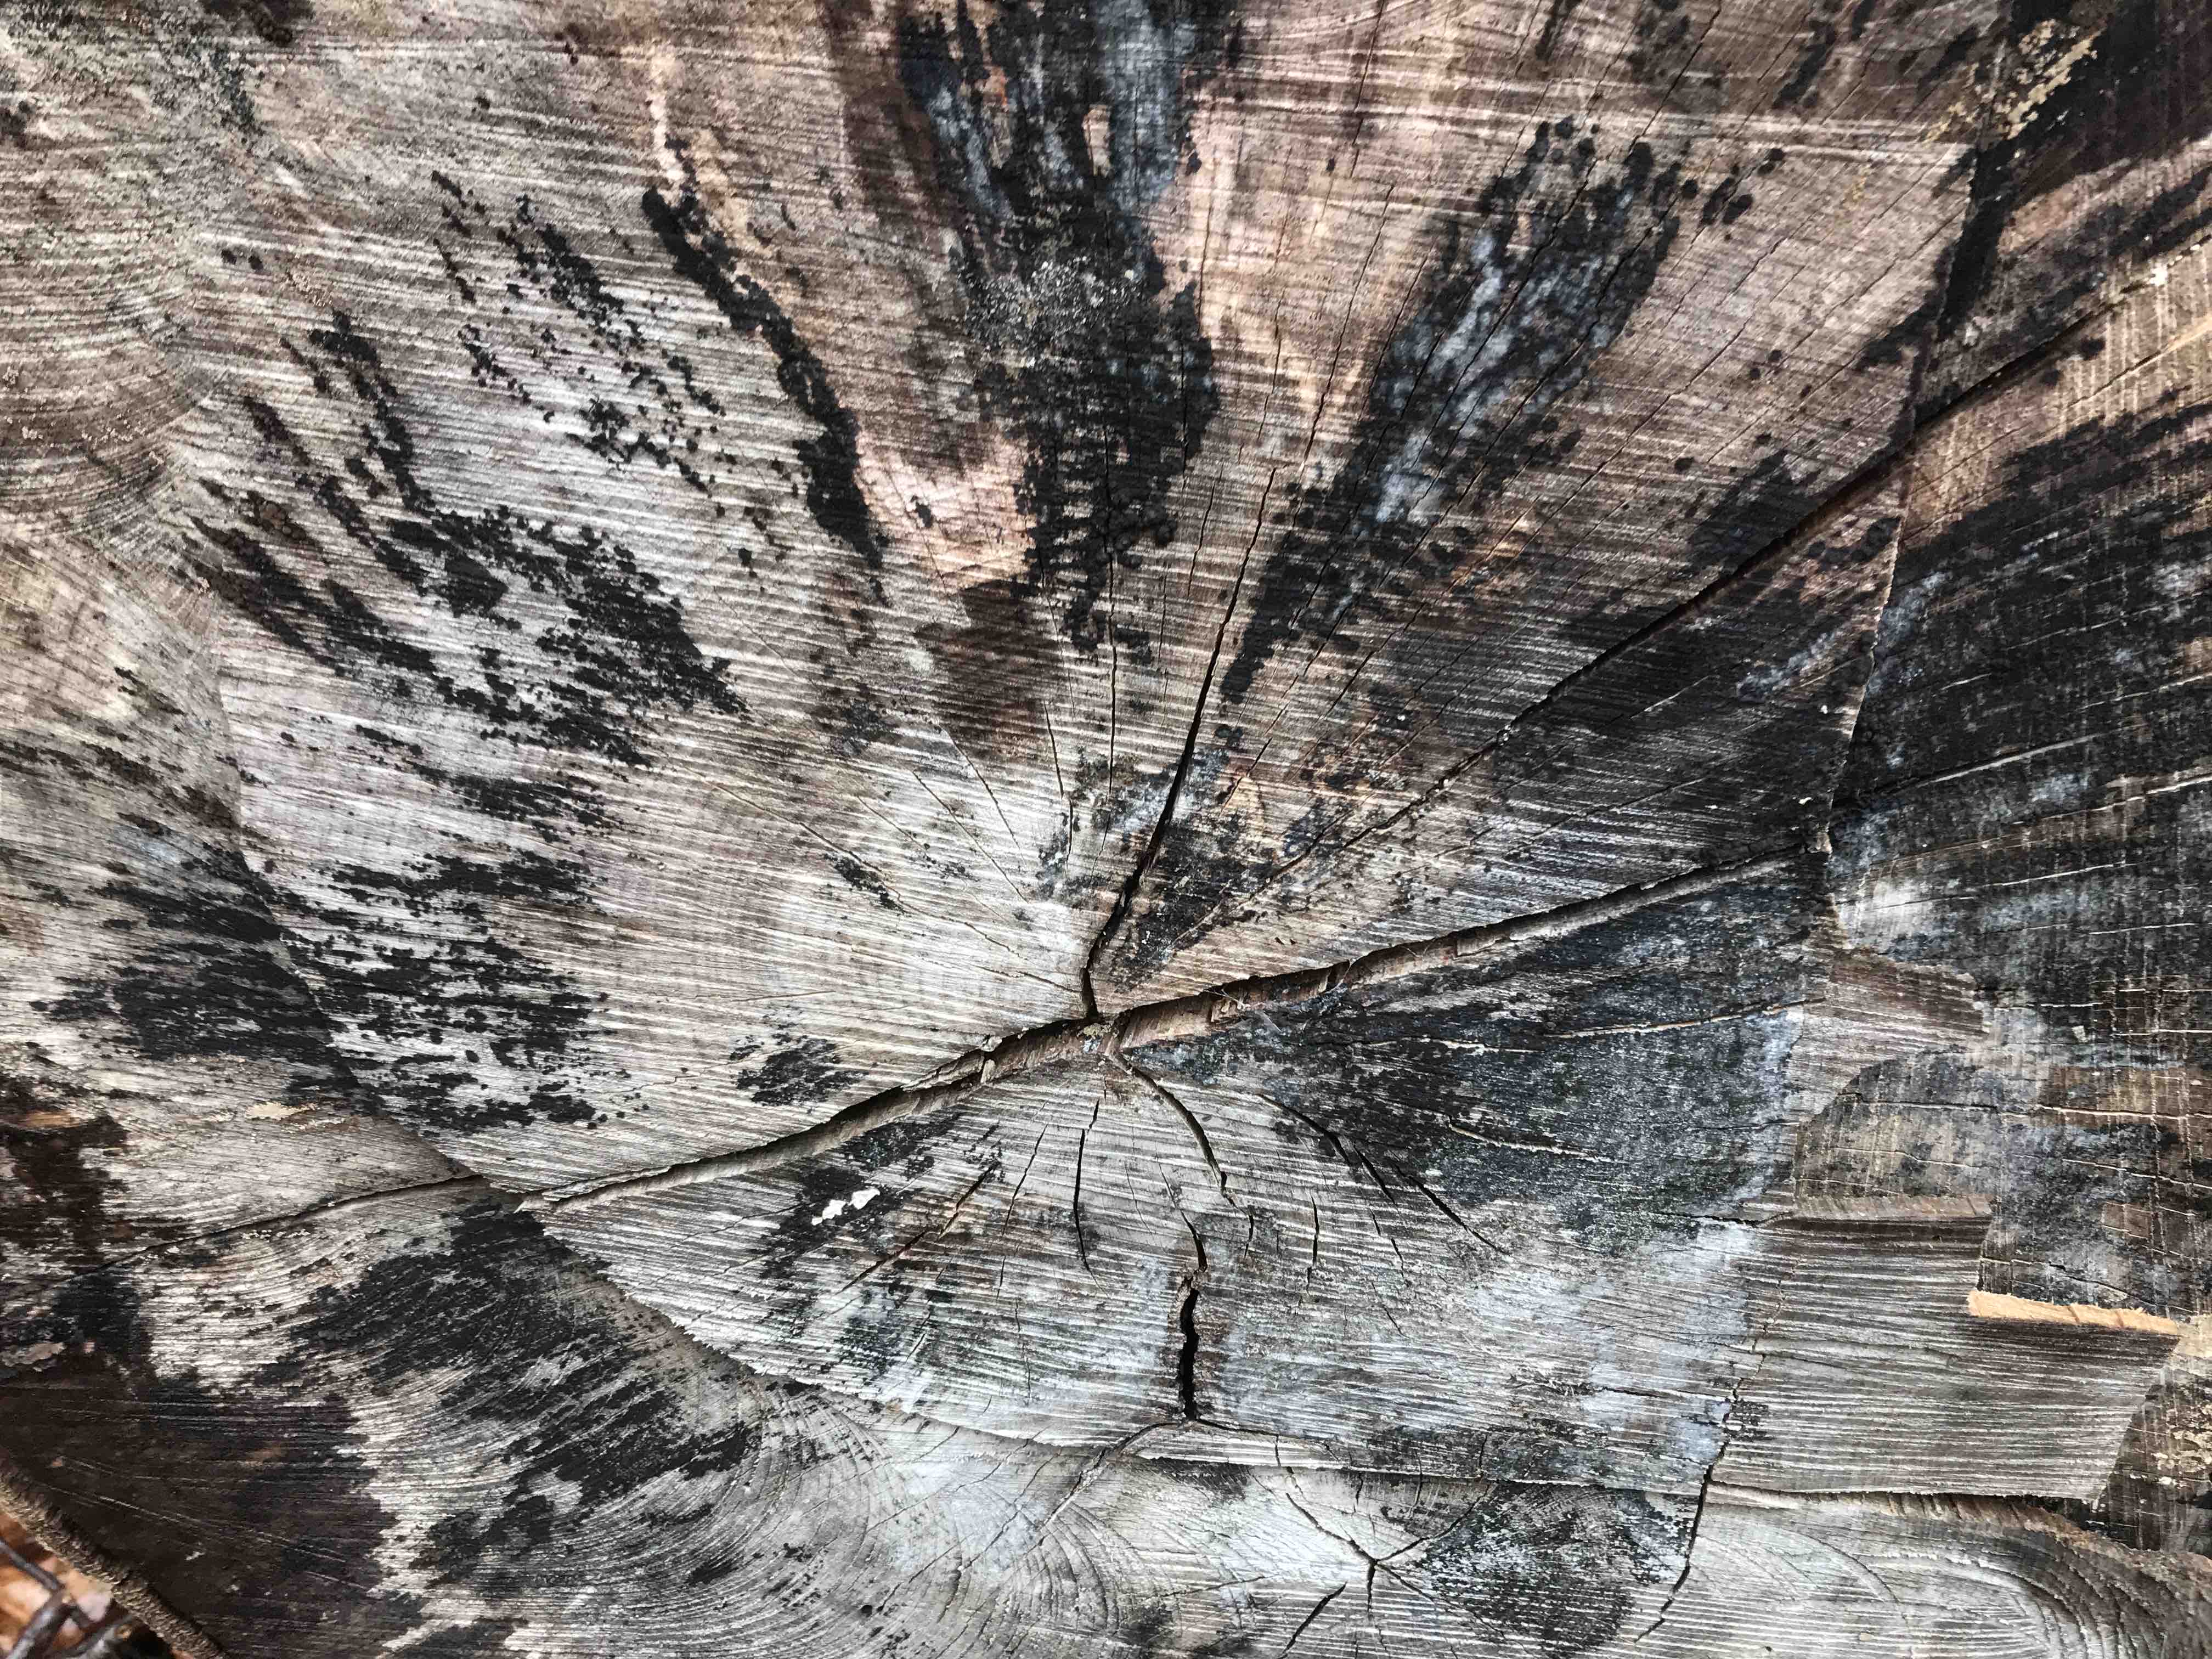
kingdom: Fungi
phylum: Ascomycota
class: Leotiomycetes
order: Helotiales
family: Helotiaceae
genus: Bispora
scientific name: Bispora pallescens
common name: måtte-snitskive
